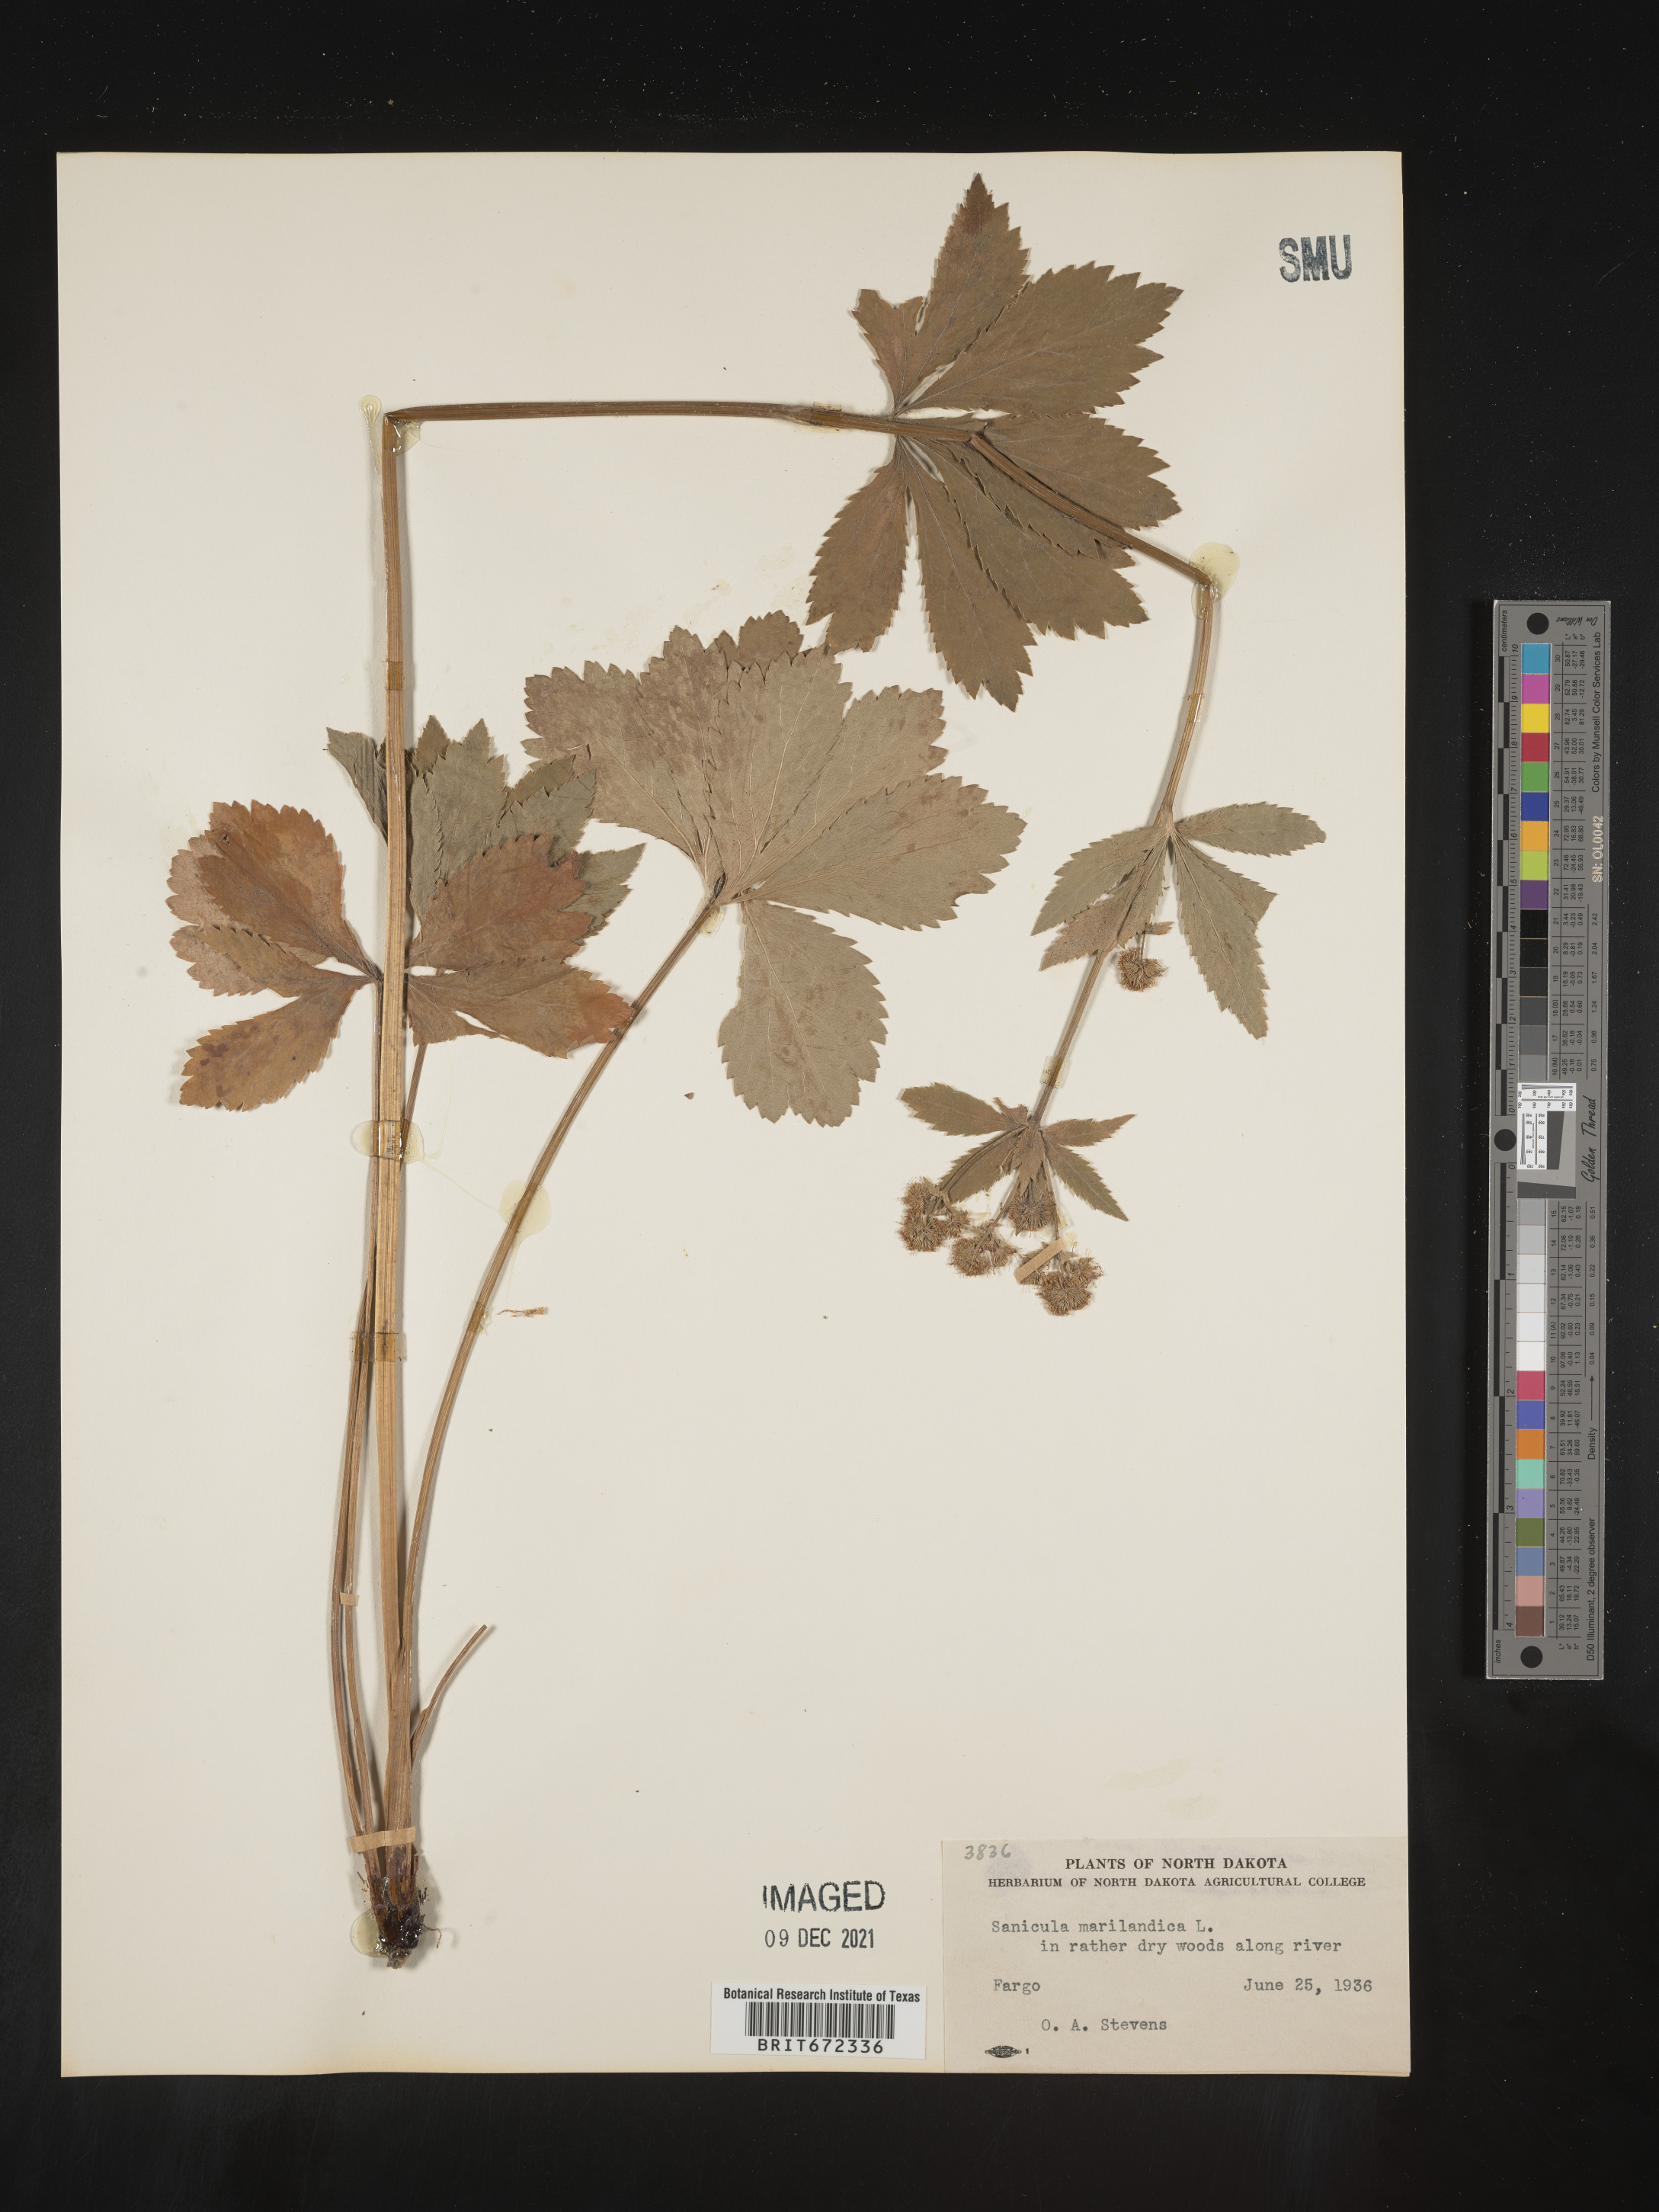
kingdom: Plantae
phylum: Tracheophyta
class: Magnoliopsida
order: Apiales
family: Apiaceae
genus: Sanicula
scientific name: Sanicula marilandica
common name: Black snakeroot
